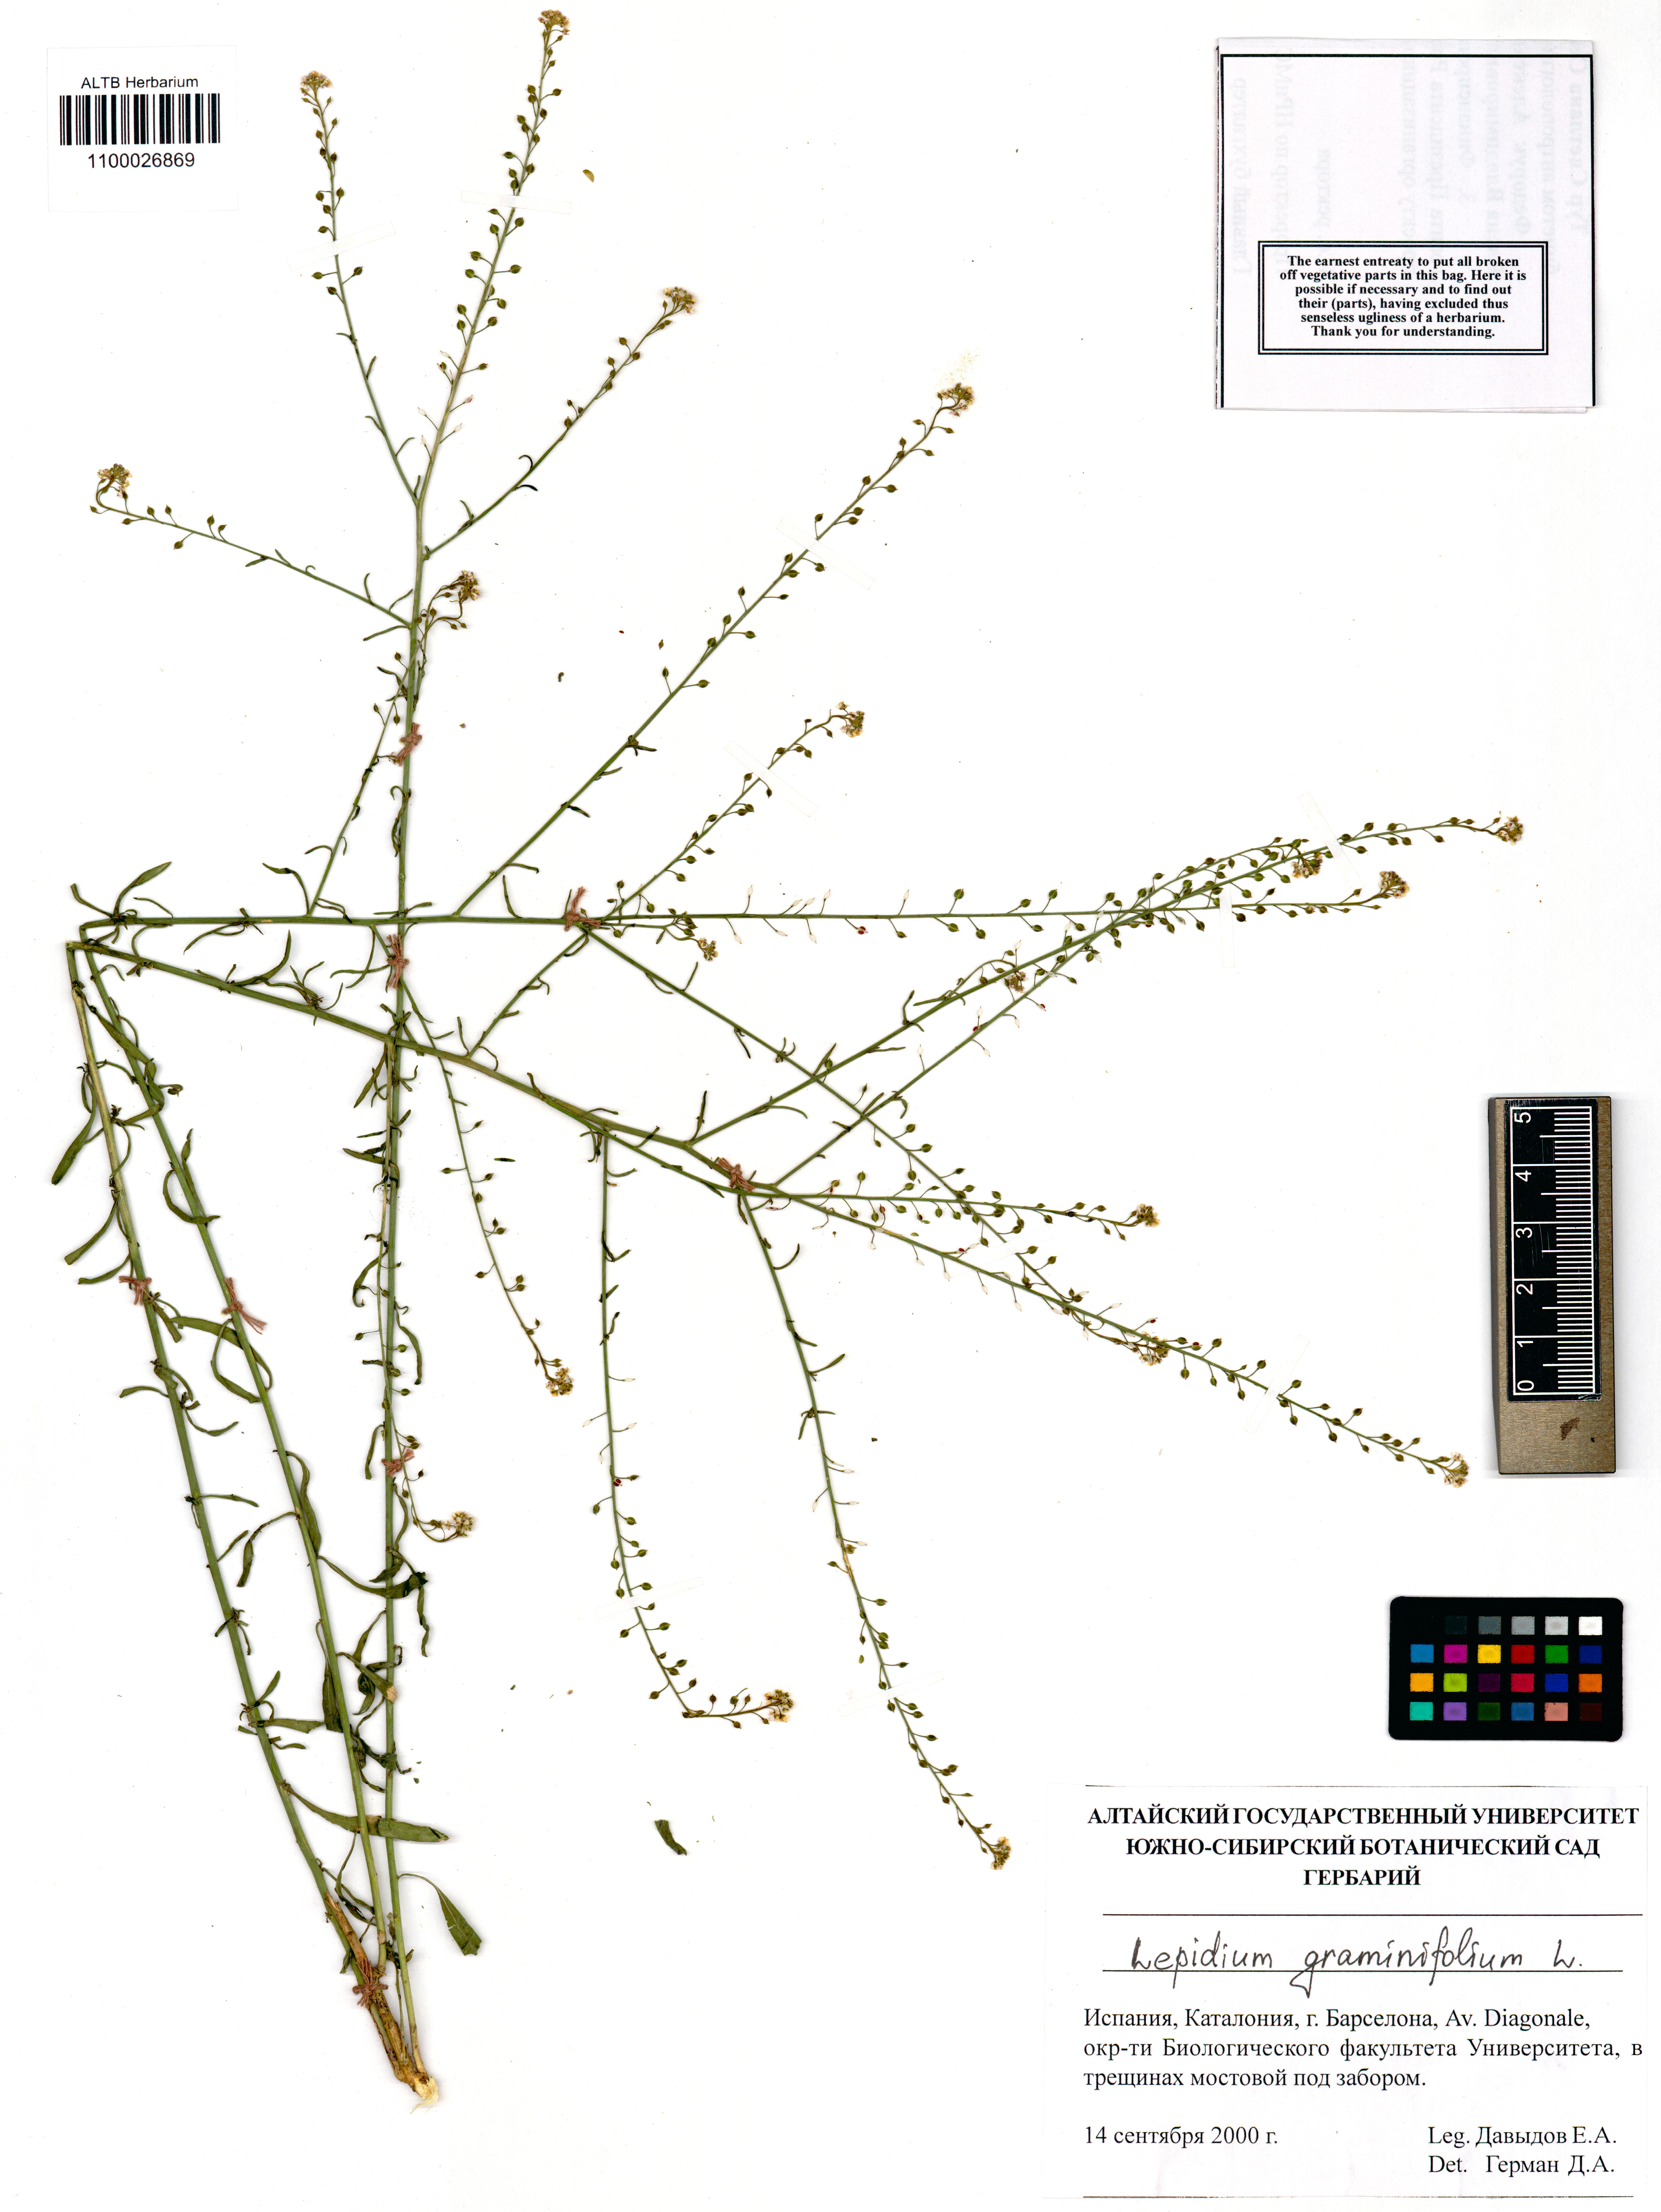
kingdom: Plantae
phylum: Tracheophyta
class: Magnoliopsida
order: Brassicales
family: Brassicaceae
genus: Lepidium
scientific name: Lepidium graminifolium
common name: Tall pepperwort
